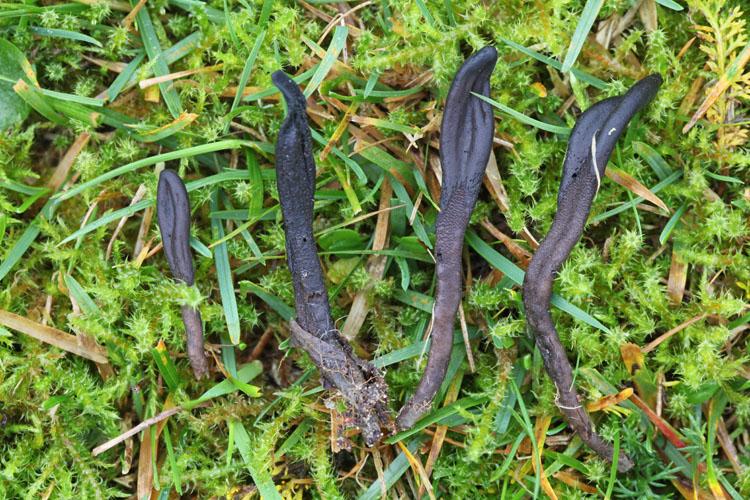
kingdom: Fungi
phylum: Ascomycota
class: Geoglossomycetes
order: Geoglossales
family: Geoglossaceae
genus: Hemileucoglossum
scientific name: Hemileucoglossum elongatum
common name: småsporet jordtunge
